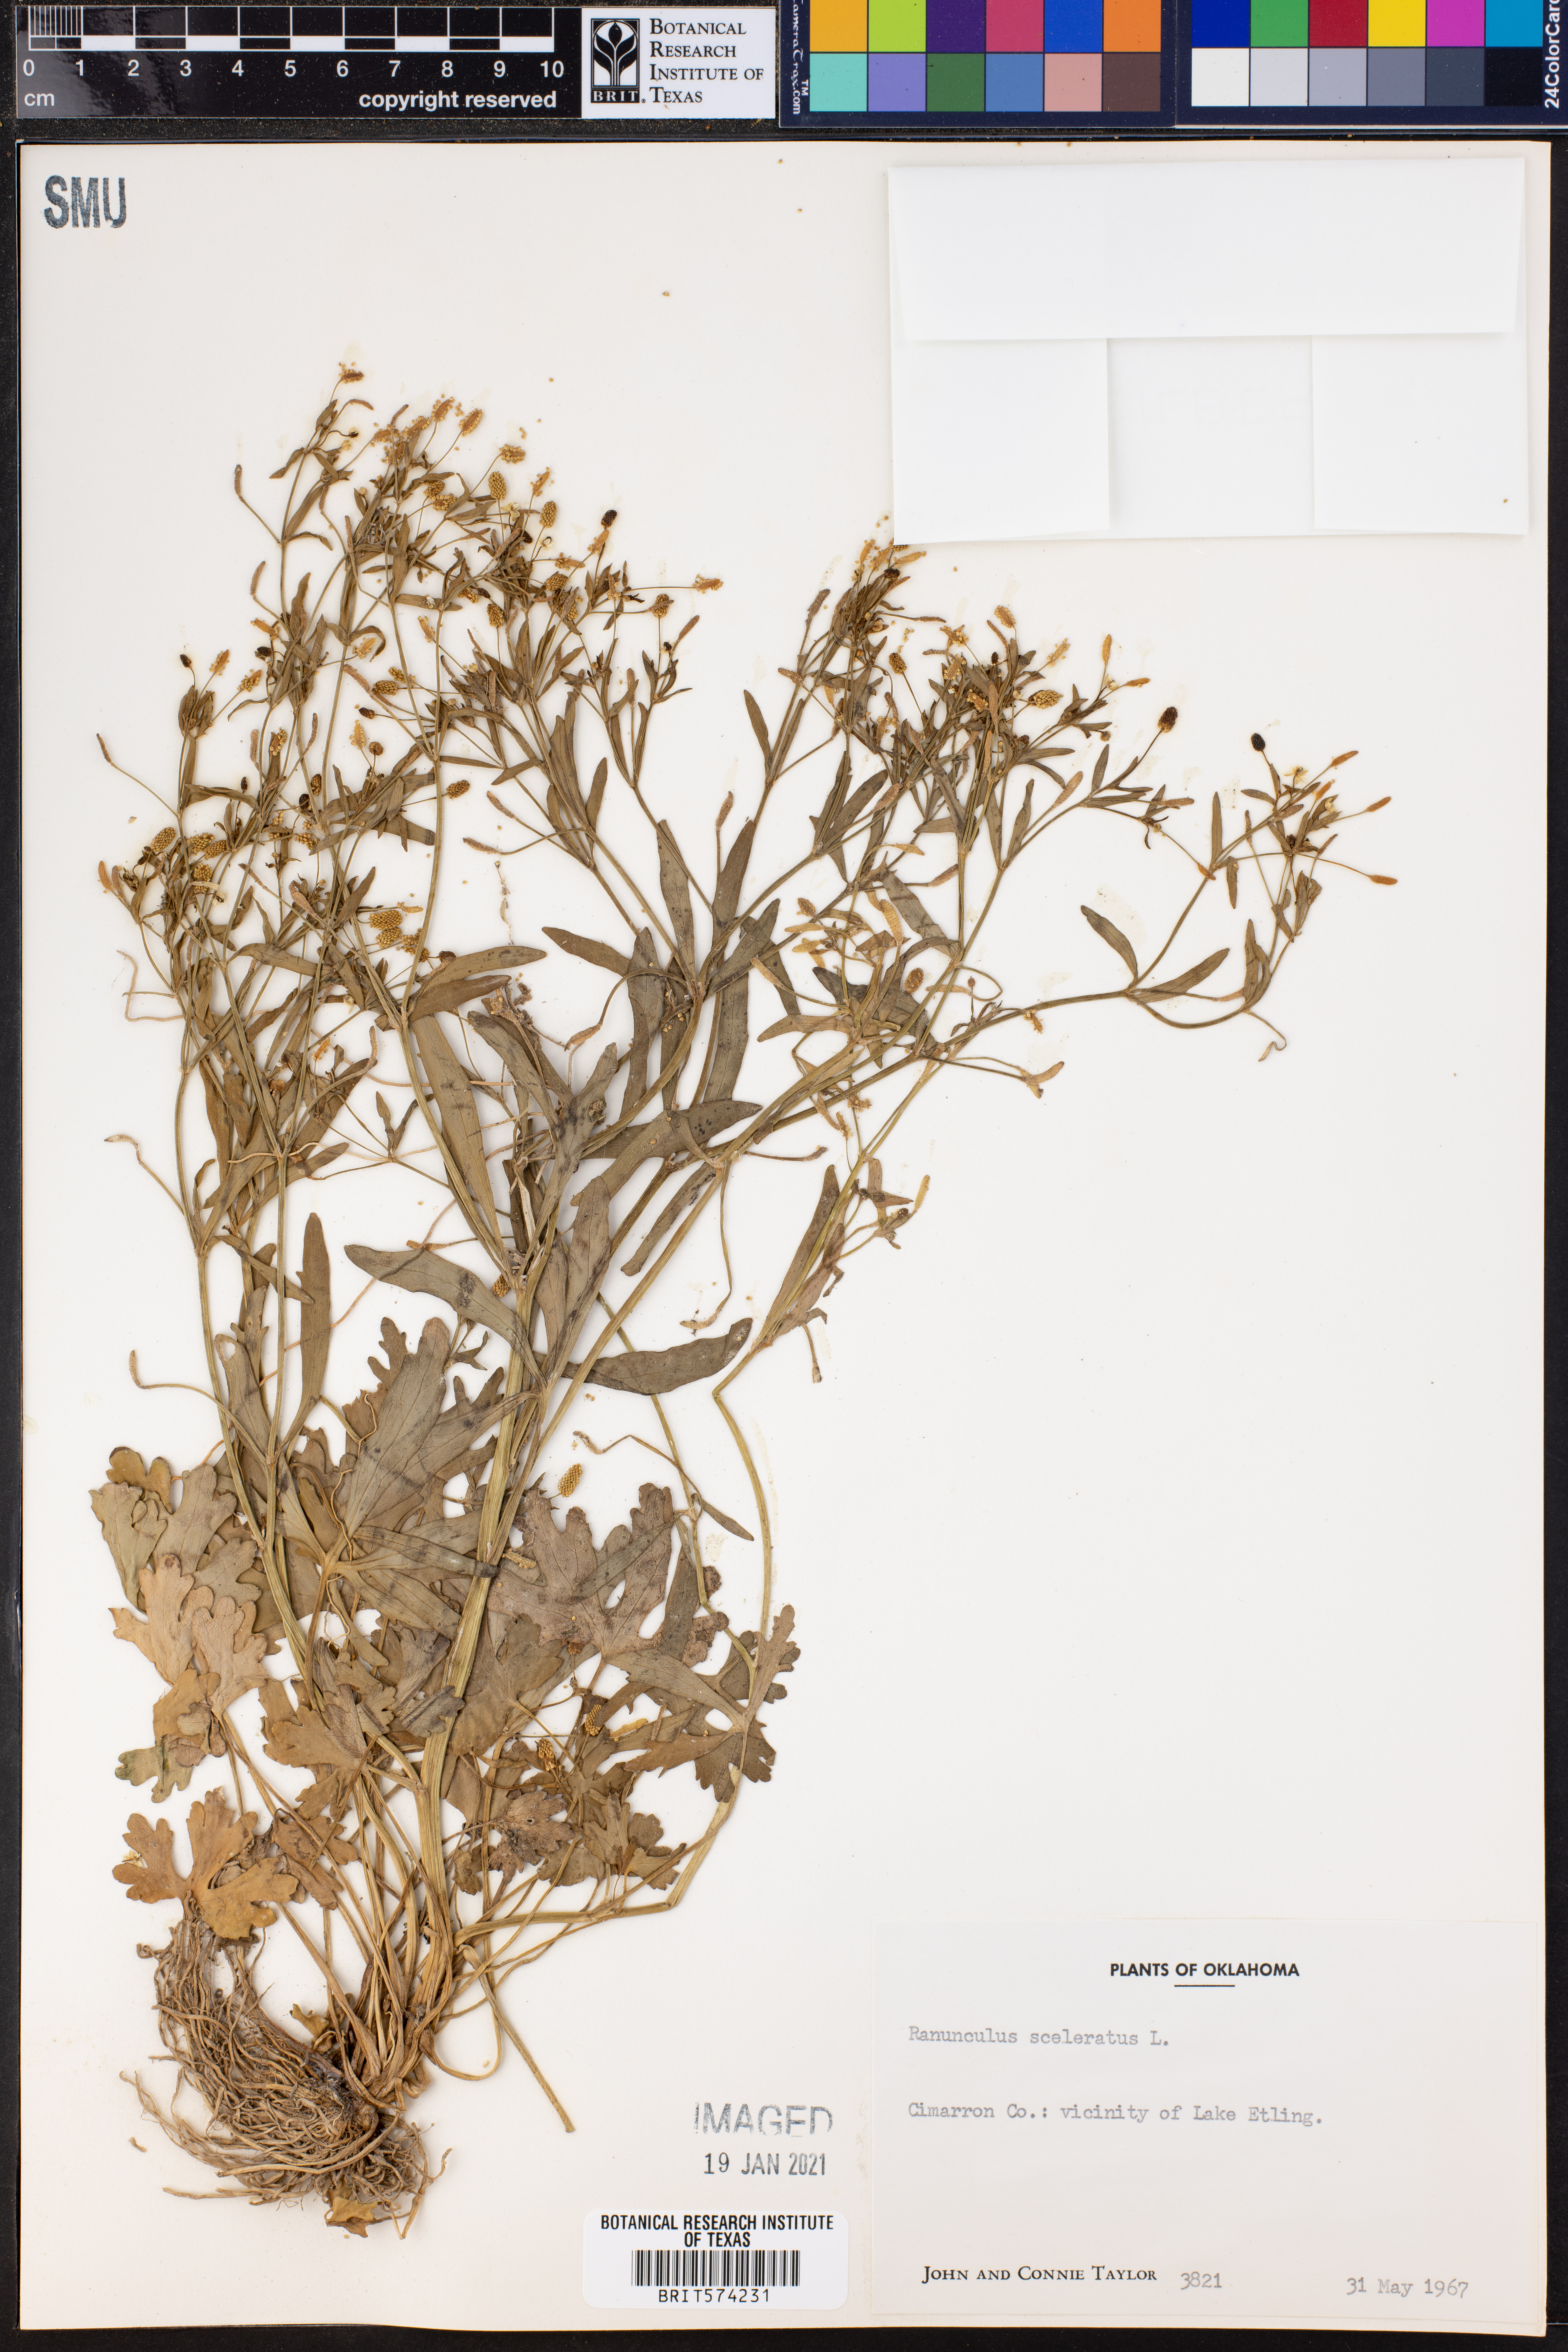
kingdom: Plantae
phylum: Tracheophyta
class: Magnoliopsida
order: Ranunculales
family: Ranunculaceae
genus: Ranunculus
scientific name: Ranunculus sceleratus
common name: Celery-leaved buttercup
